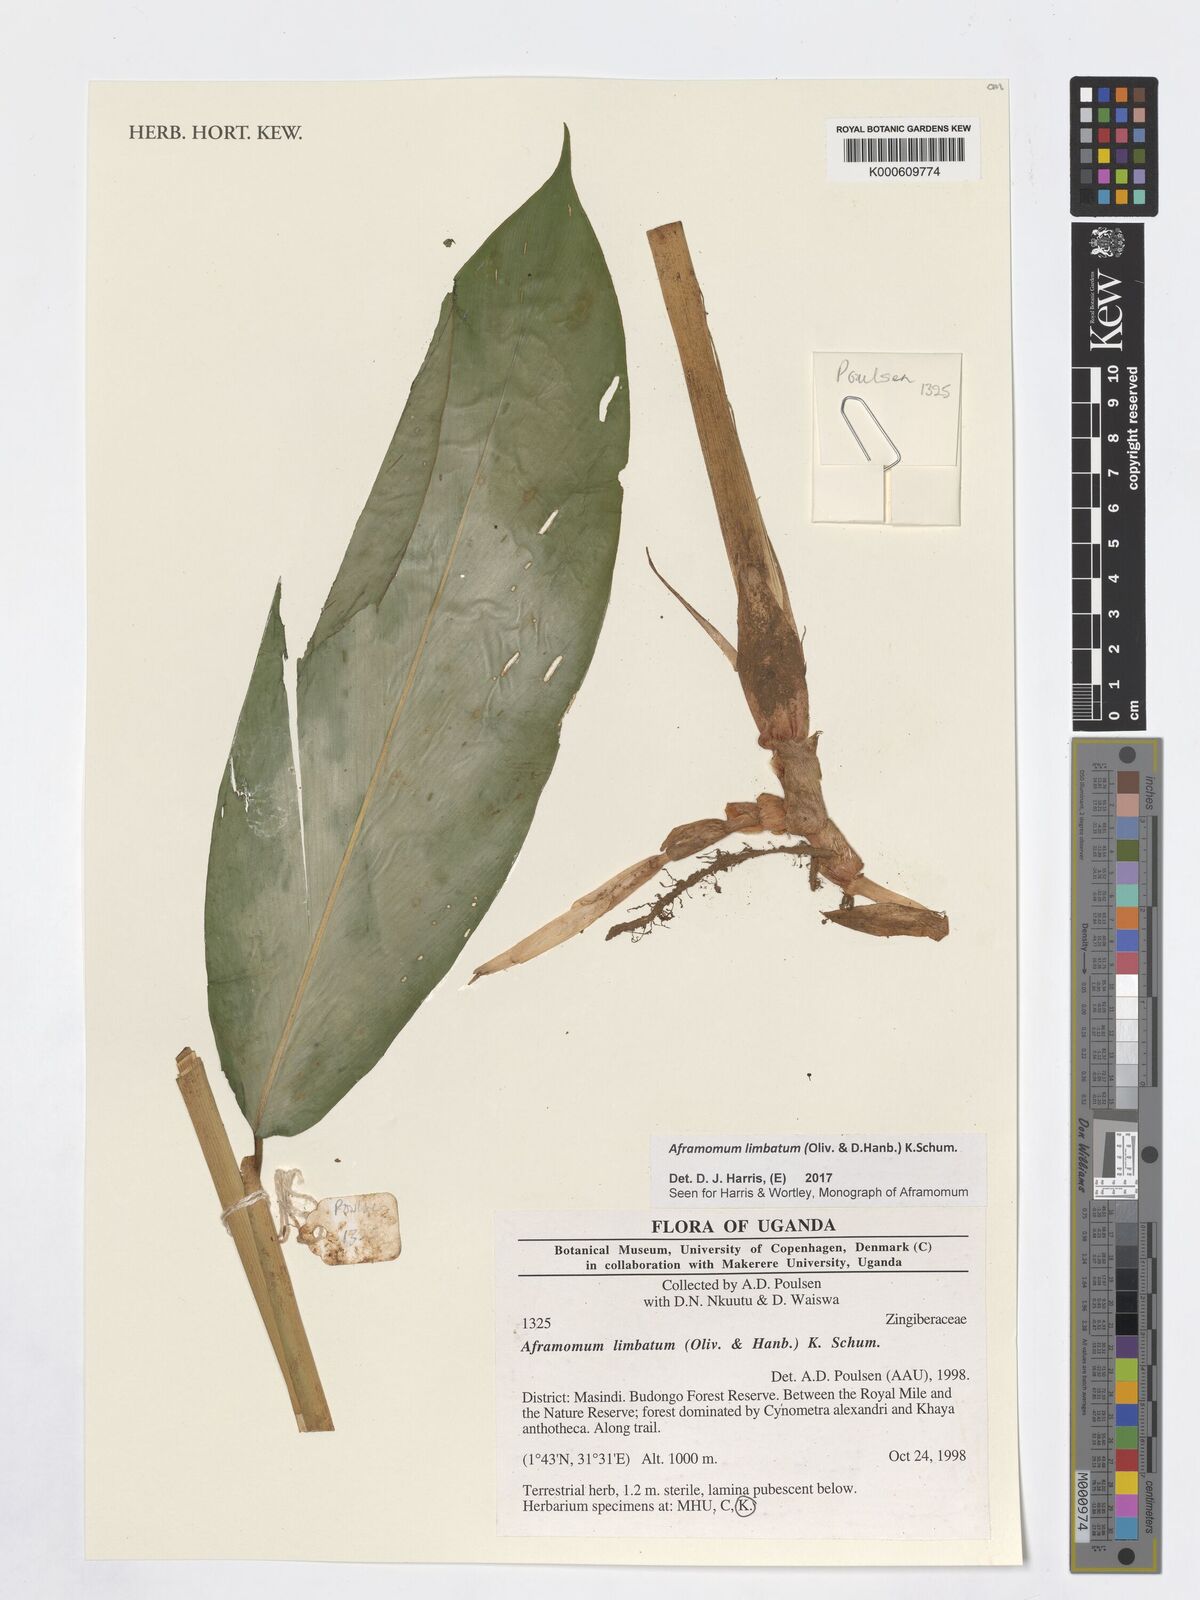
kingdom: Plantae
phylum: Tracheophyta
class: Liliopsida
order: Zingiberales
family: Zingiberaceae
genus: Aframomum
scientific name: Aframomum limbatum
